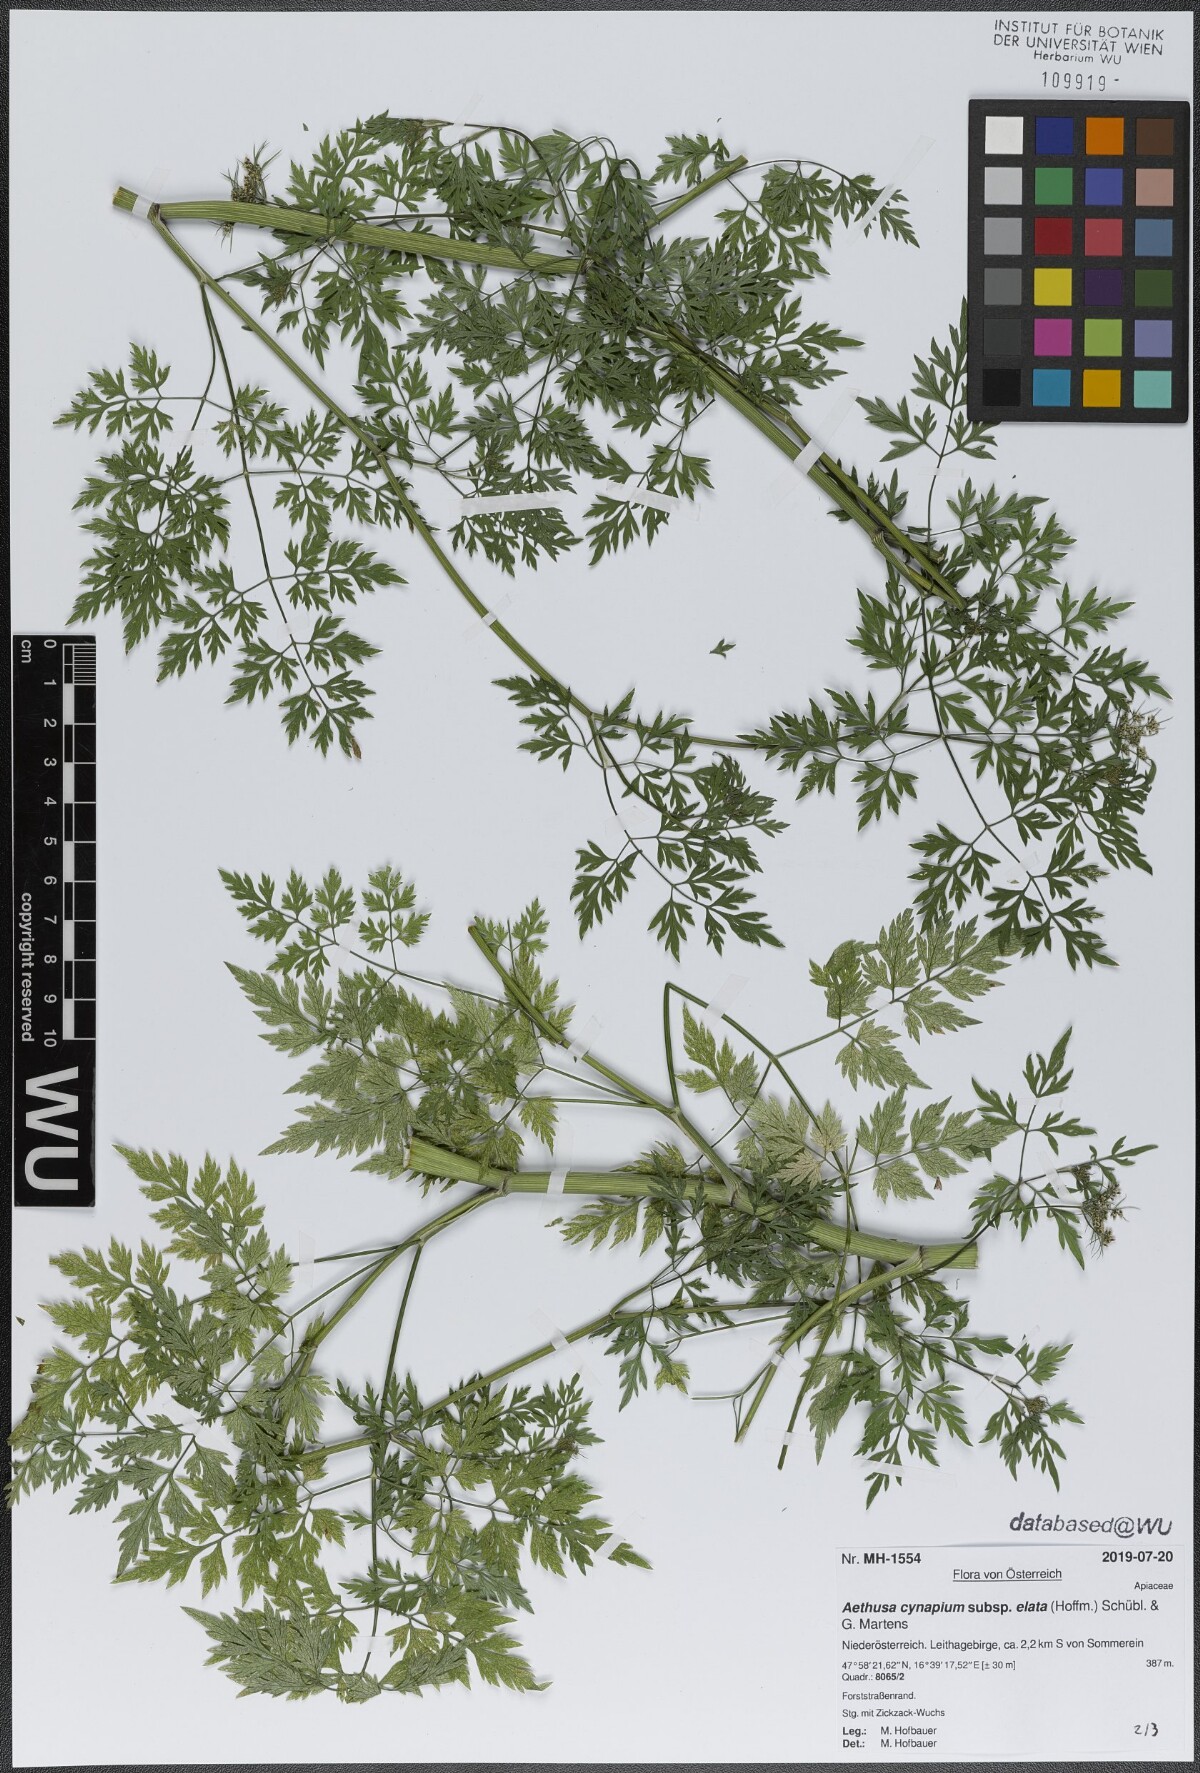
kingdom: Plantae
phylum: Tracheophyta
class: Magnoliopsida
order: Apiales
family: Apiaceae
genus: Aethusa
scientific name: Aethusa cynapium
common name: Fool's parsley
